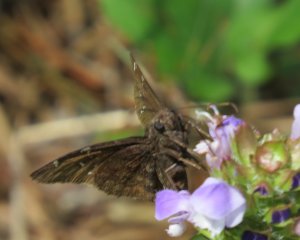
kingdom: Animalia
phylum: Arthropoda
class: Insecta
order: Lepidoptera
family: Hesperiidae
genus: Autochton
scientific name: Autochton
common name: Northern Cloudywing
